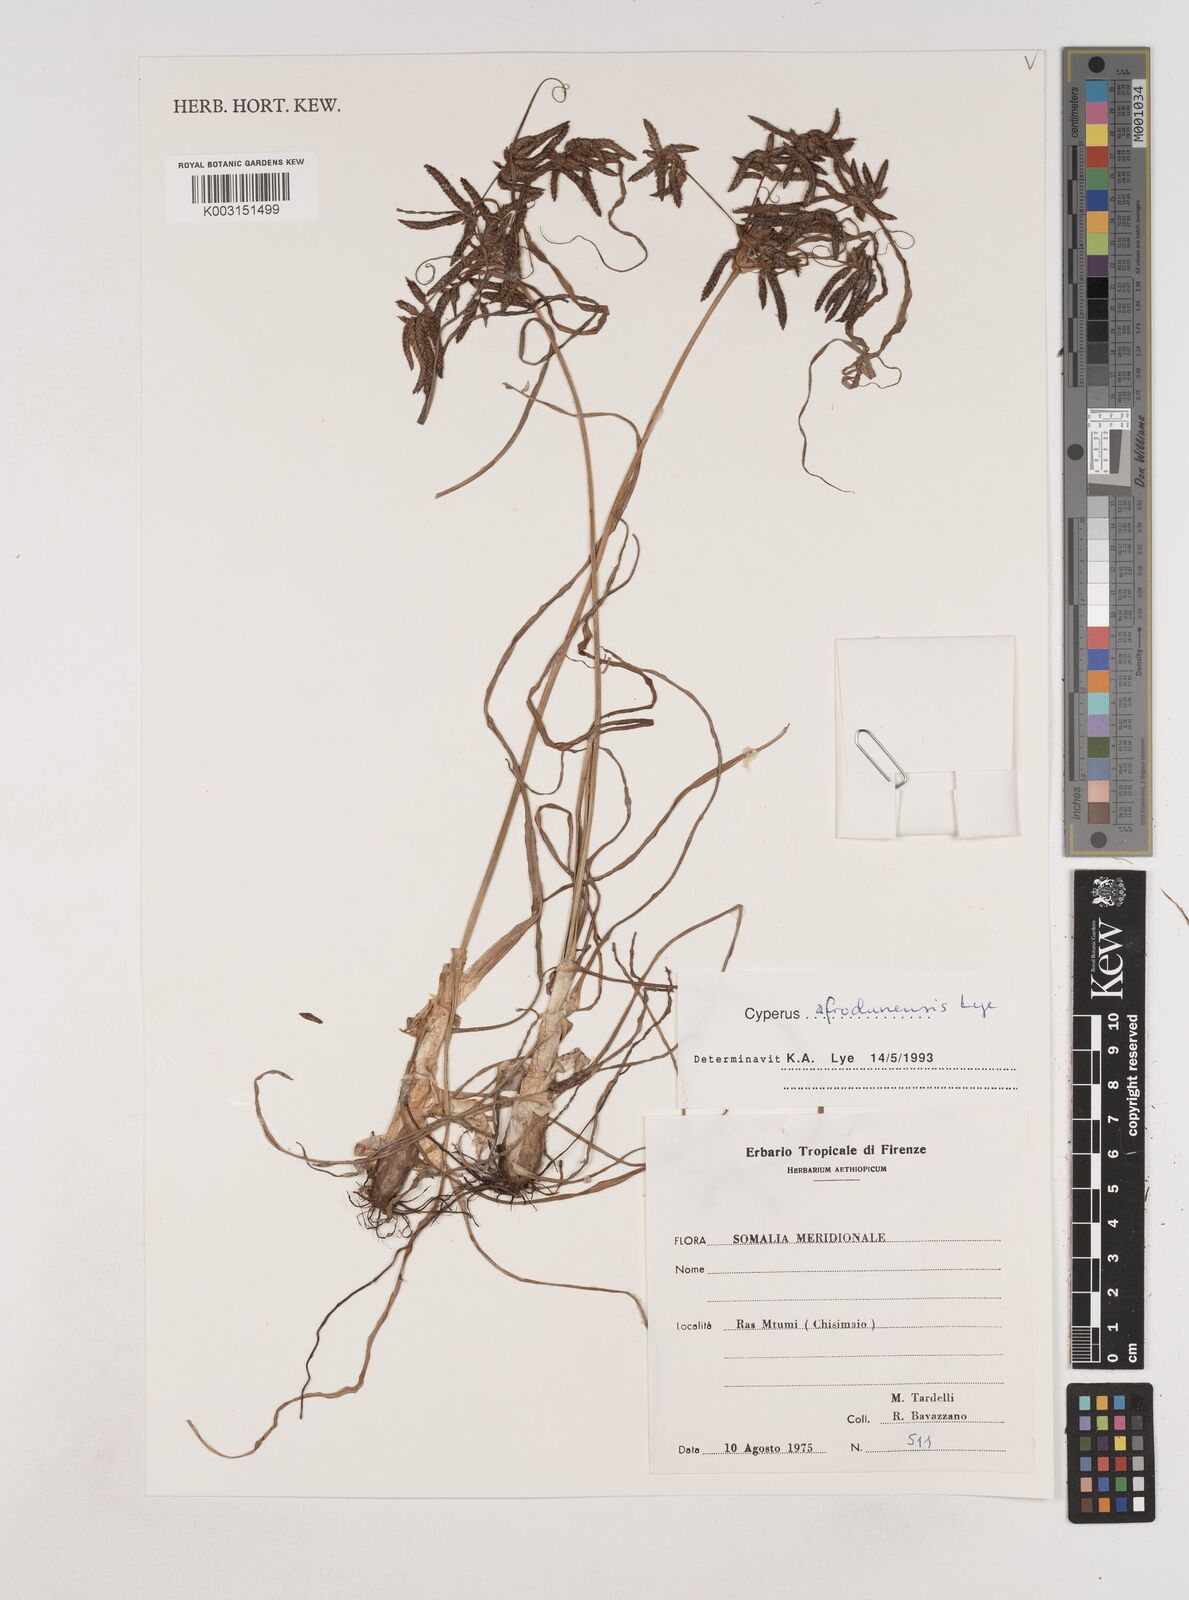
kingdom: Plantae
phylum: Tracheophyta
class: Liliopsida
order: Poales
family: Cyperaceae
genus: Cyperus
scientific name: Cyperus afrodunensis
